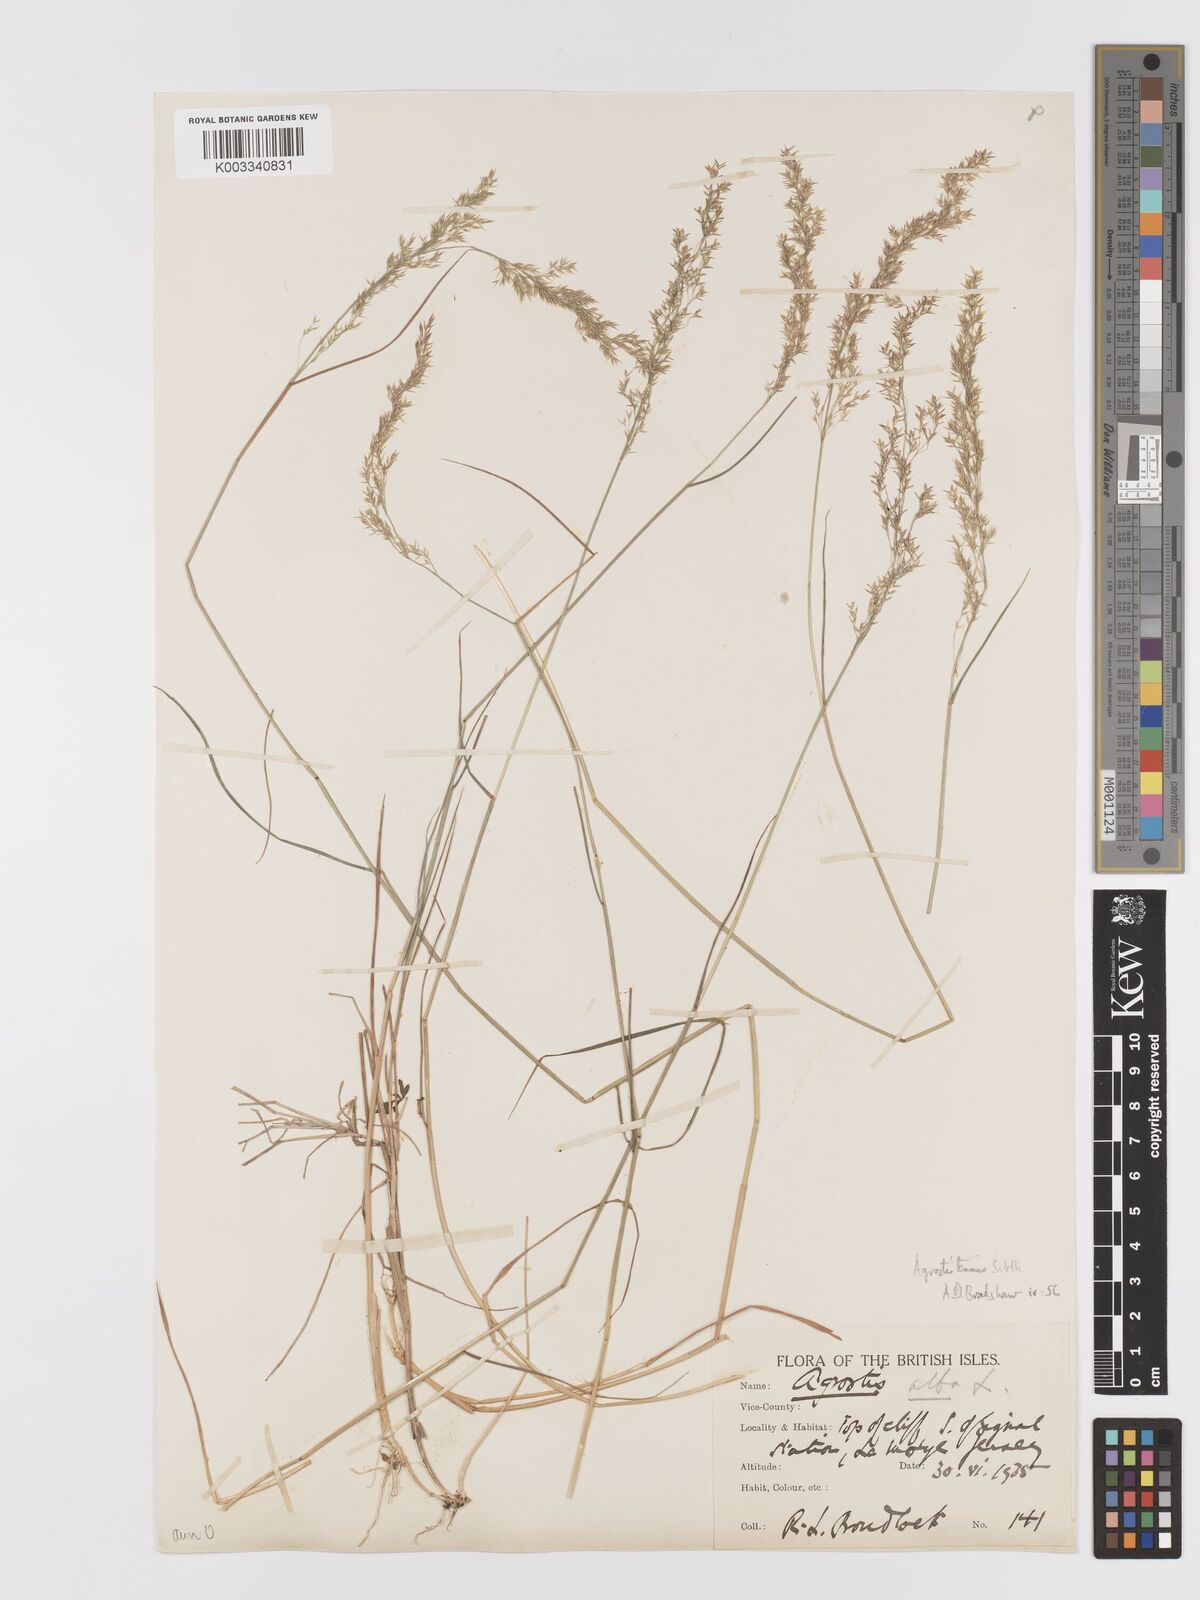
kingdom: Plantae
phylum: Tracheophyta
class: Liliopsida
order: Poales
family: Poaceae
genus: Agrostis
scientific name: Agrostis capillaris
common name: Colonial bentgrass
